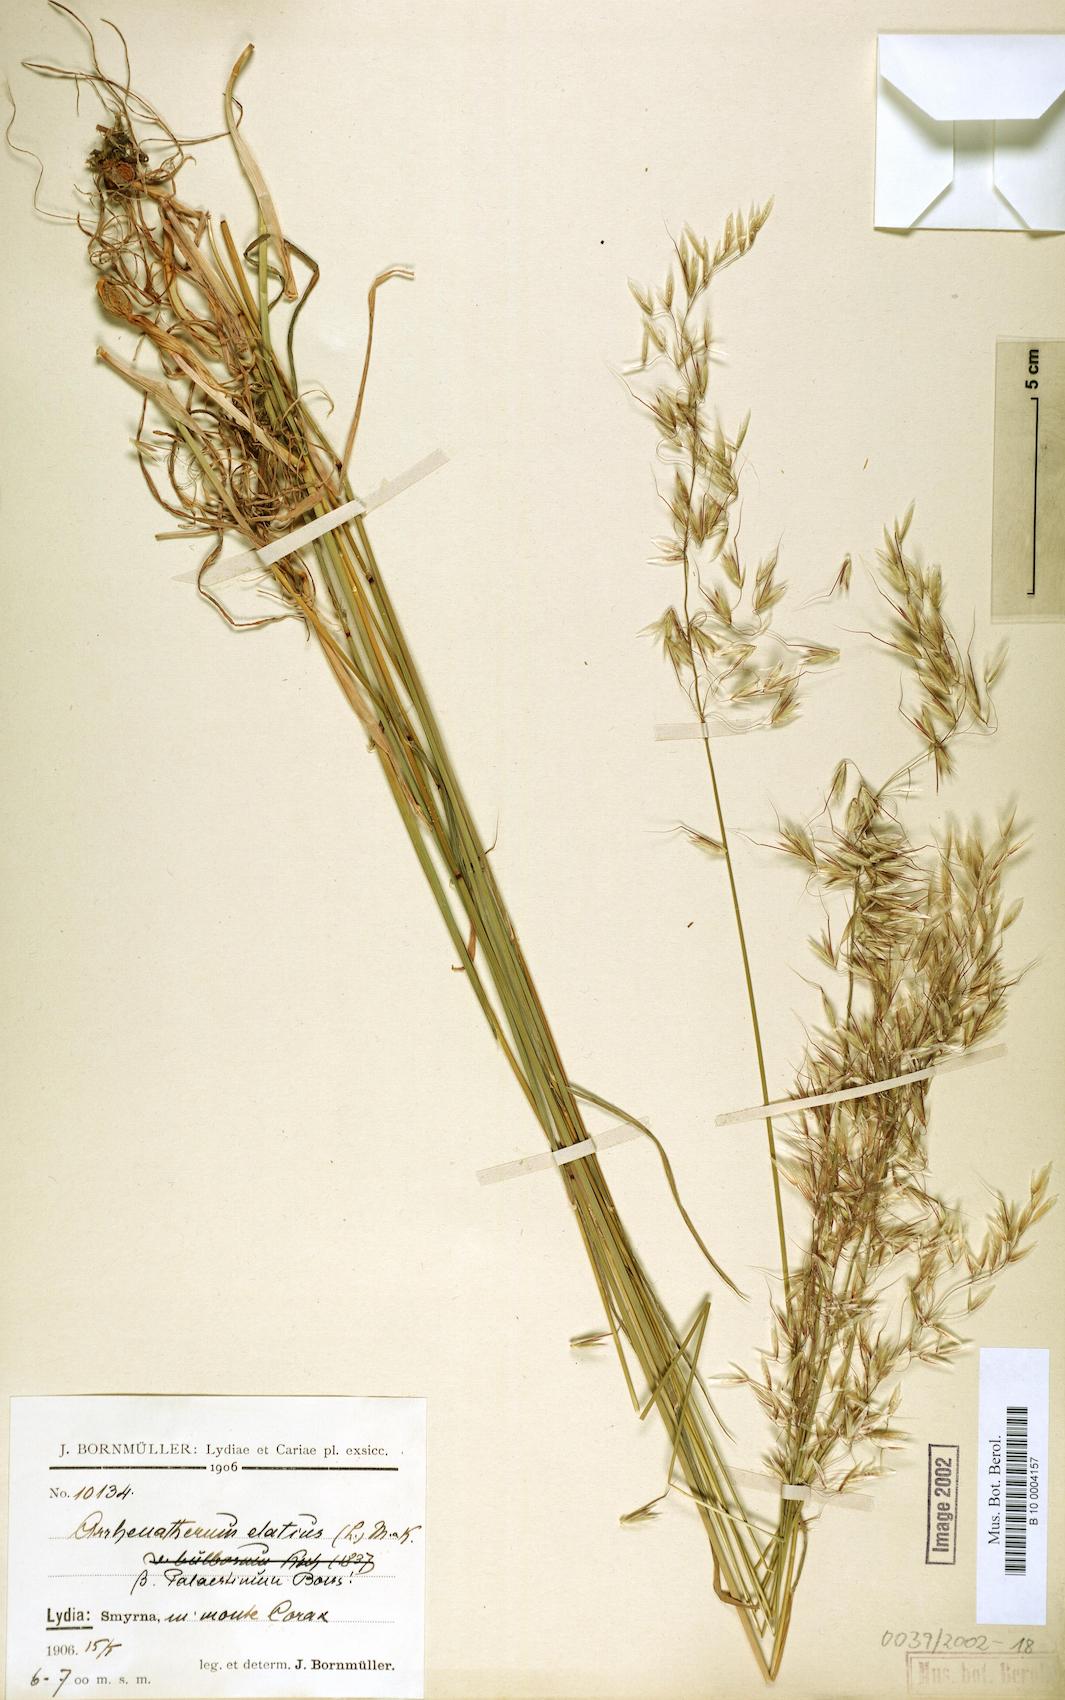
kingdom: Plantae
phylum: Tracheophyta
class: Liliopsida
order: Poales
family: Poaceae
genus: Arrhenatherum
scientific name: Arrhenatherum palaestinum
